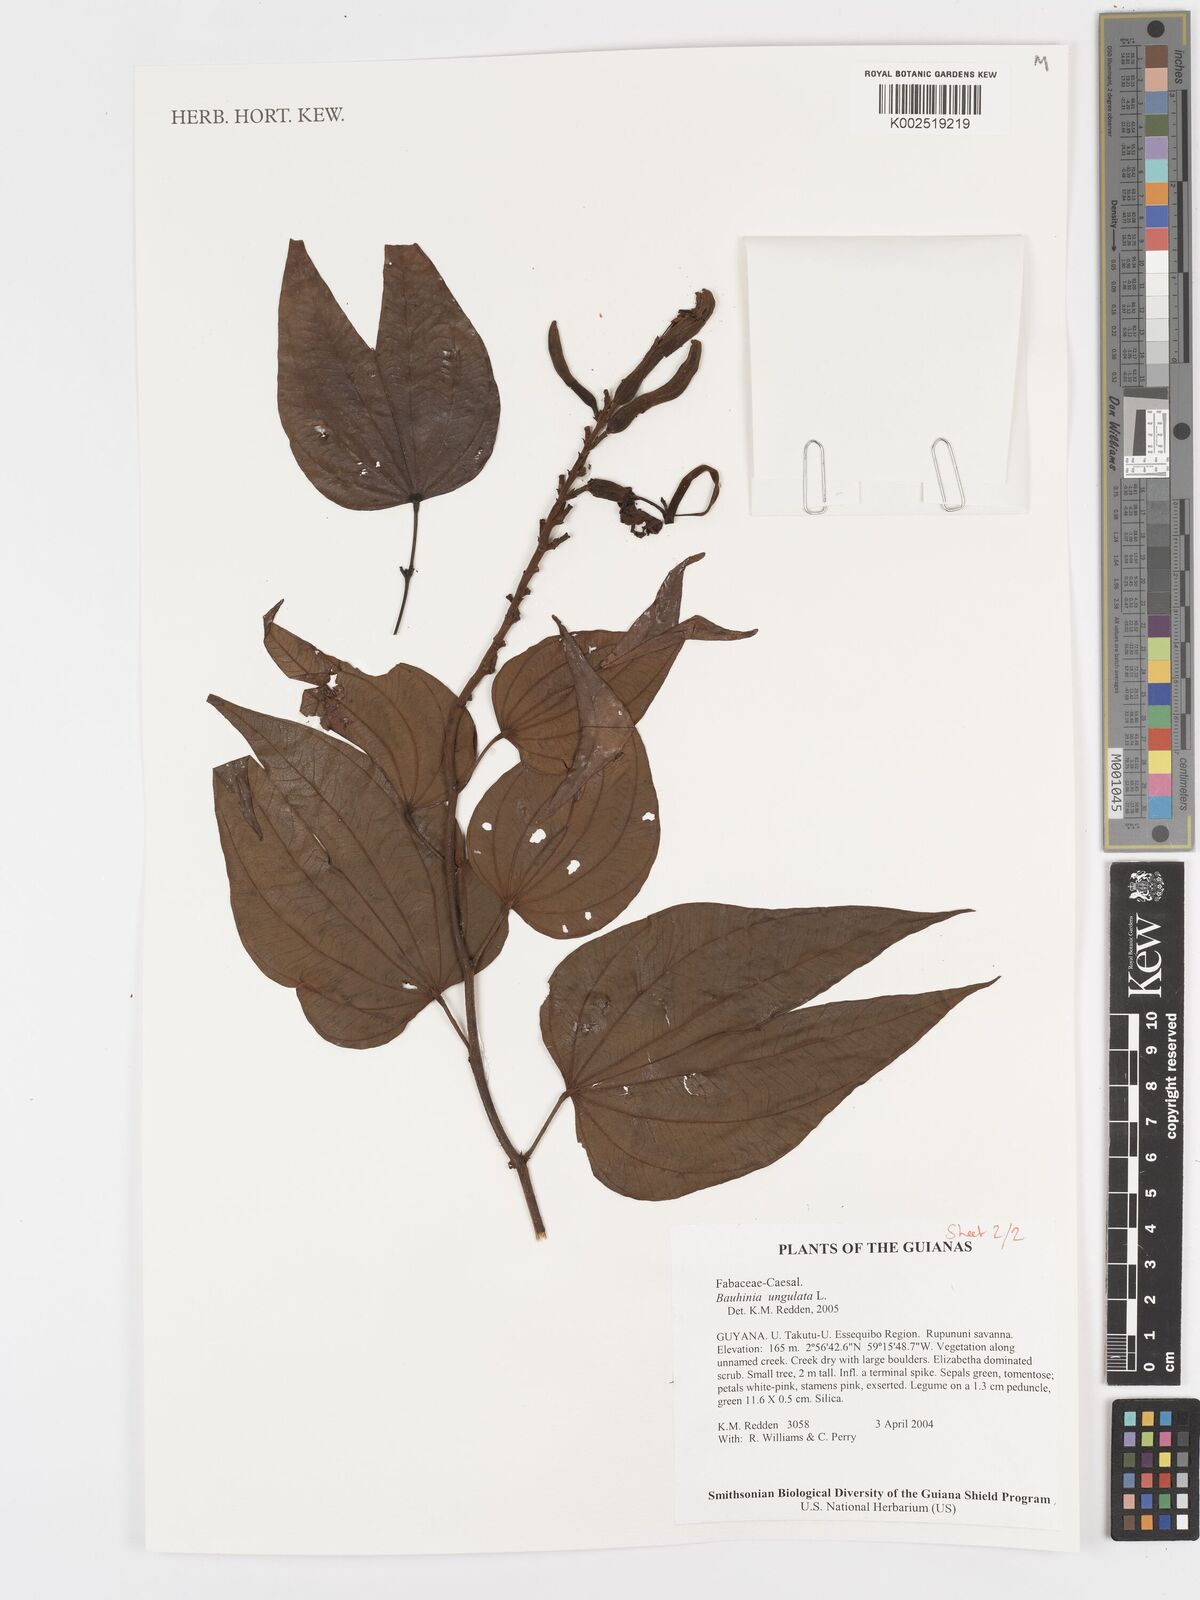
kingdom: Plantae
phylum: Tracheophyta
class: Magnoliopsida
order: Fabales
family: Fabaceae
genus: Bauhinia
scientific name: Bauhinia ungulata
